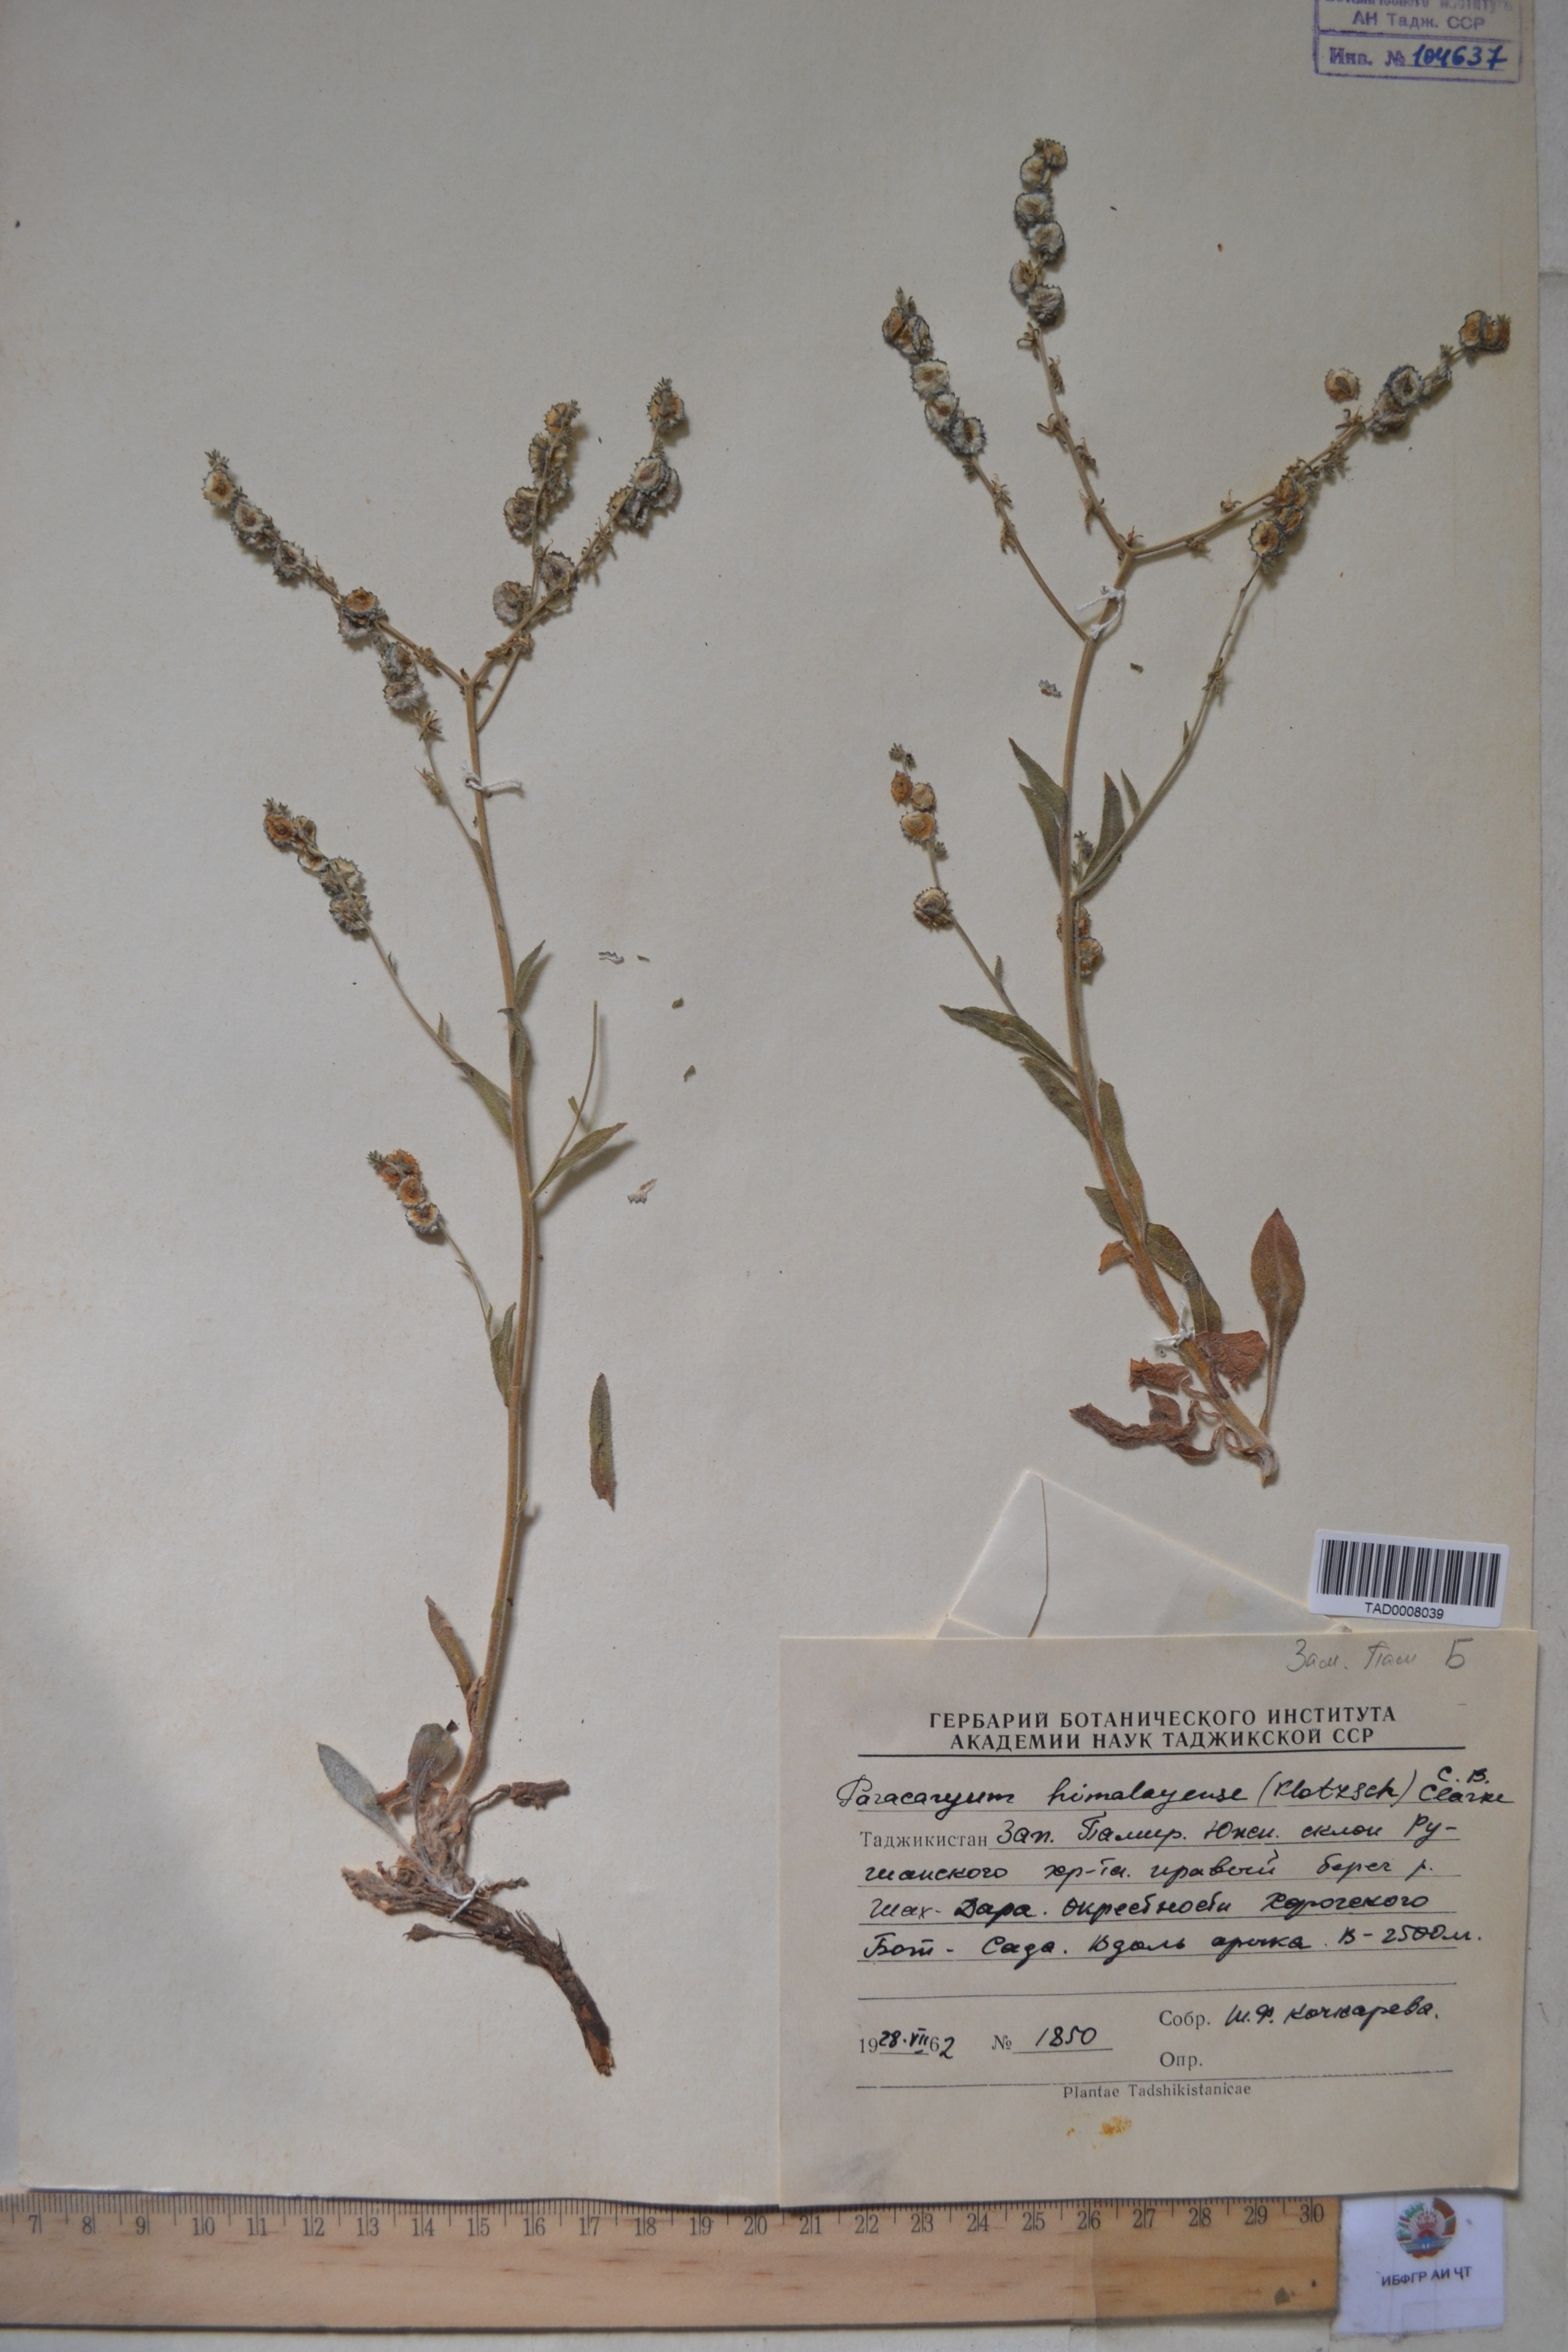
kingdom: Plantae
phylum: Tracheophyta
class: Magnoliopsida
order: Boraginales
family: Boraginaceae
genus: Paracaryum
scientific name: Paracaryum himalayense
